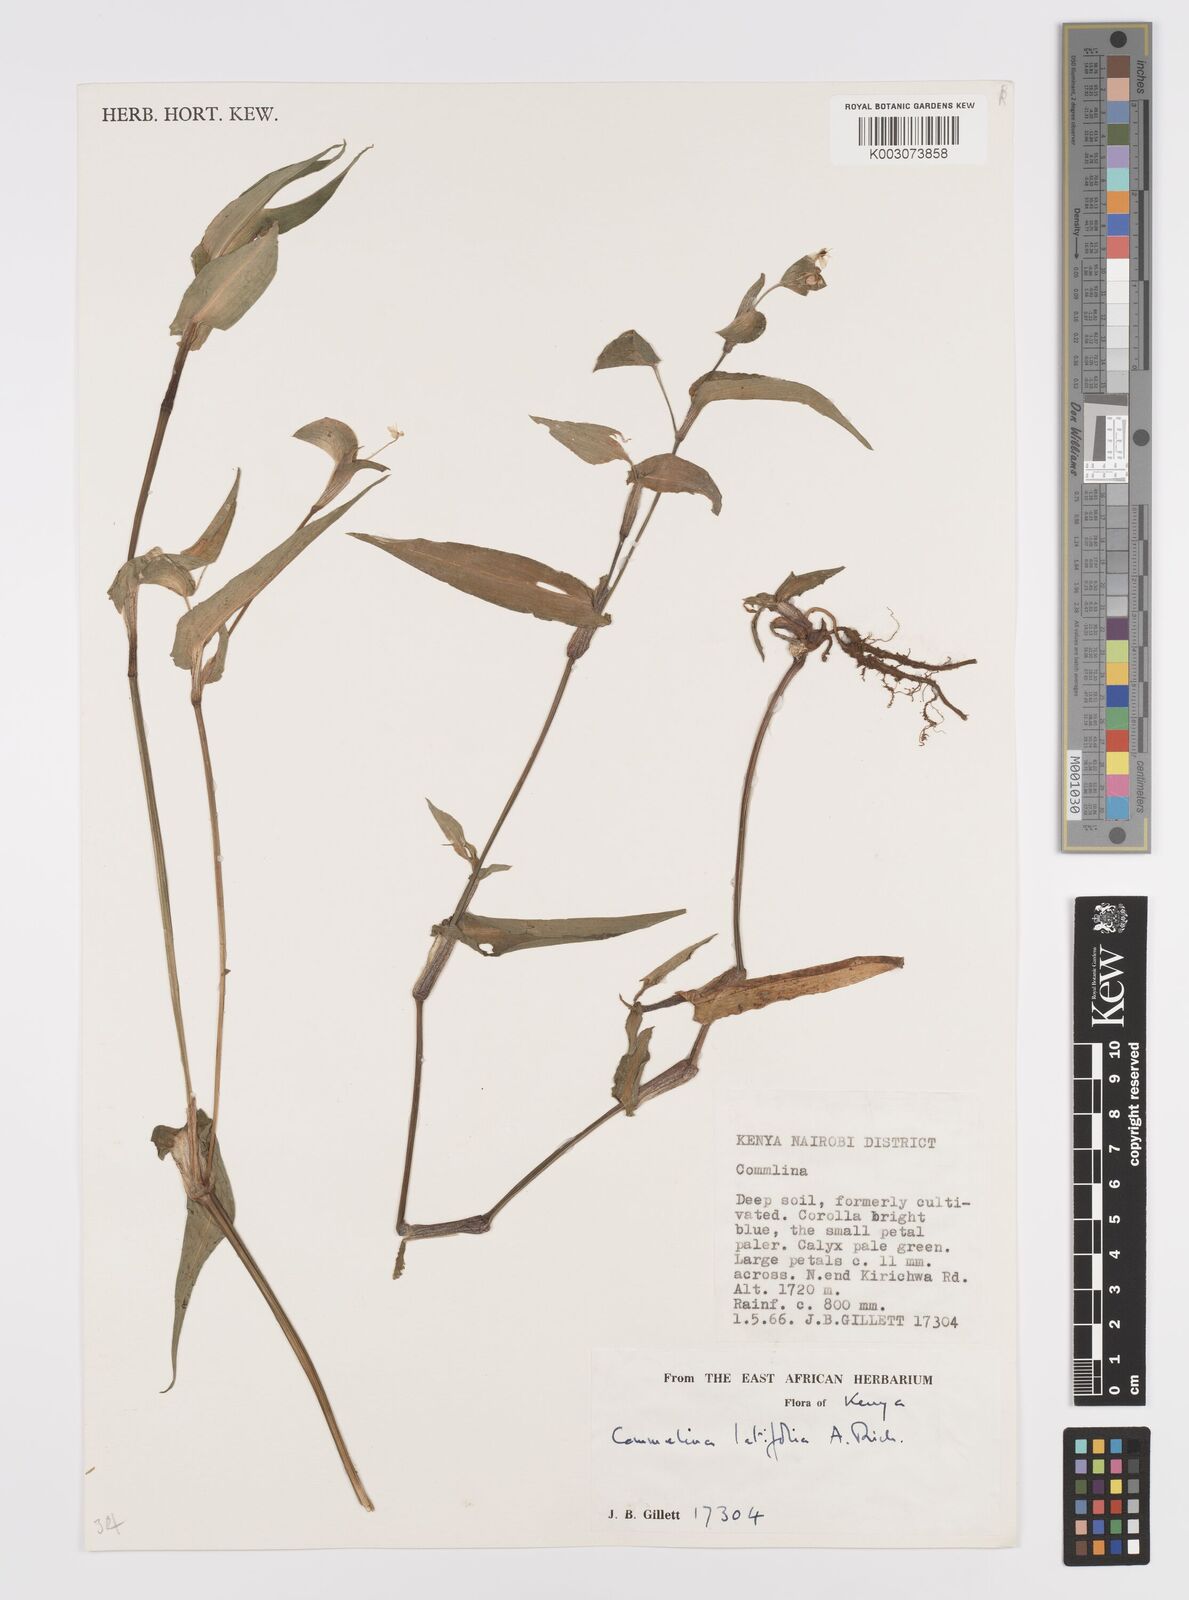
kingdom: Plantae
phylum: Tracheophyta
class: Liliopsida
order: Commelinales
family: Commelinaceae
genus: Commelina
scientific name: Commelina latifolia
